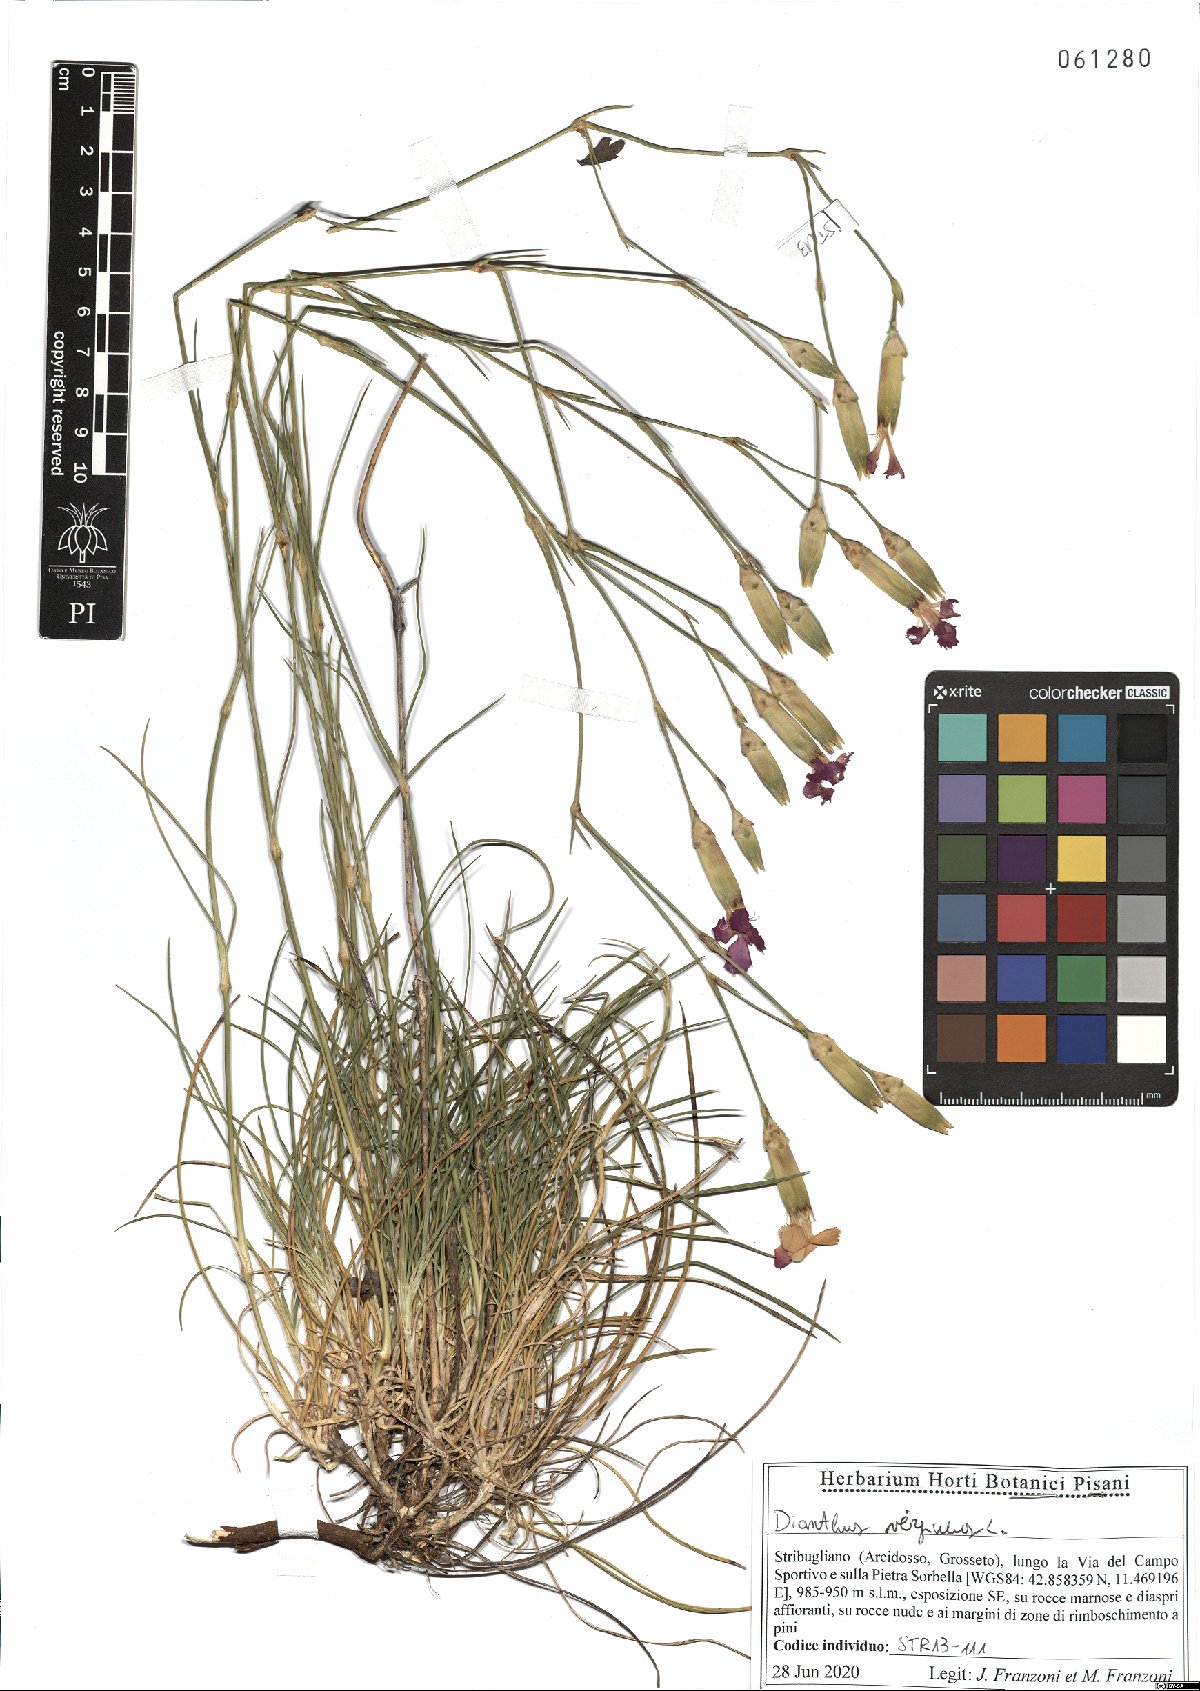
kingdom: Plantae
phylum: Tracheophyta
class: Magnoliopsida
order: Caryophyllales
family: Caryophyllaceae
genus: Dianthus
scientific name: Dianthus virgineus
